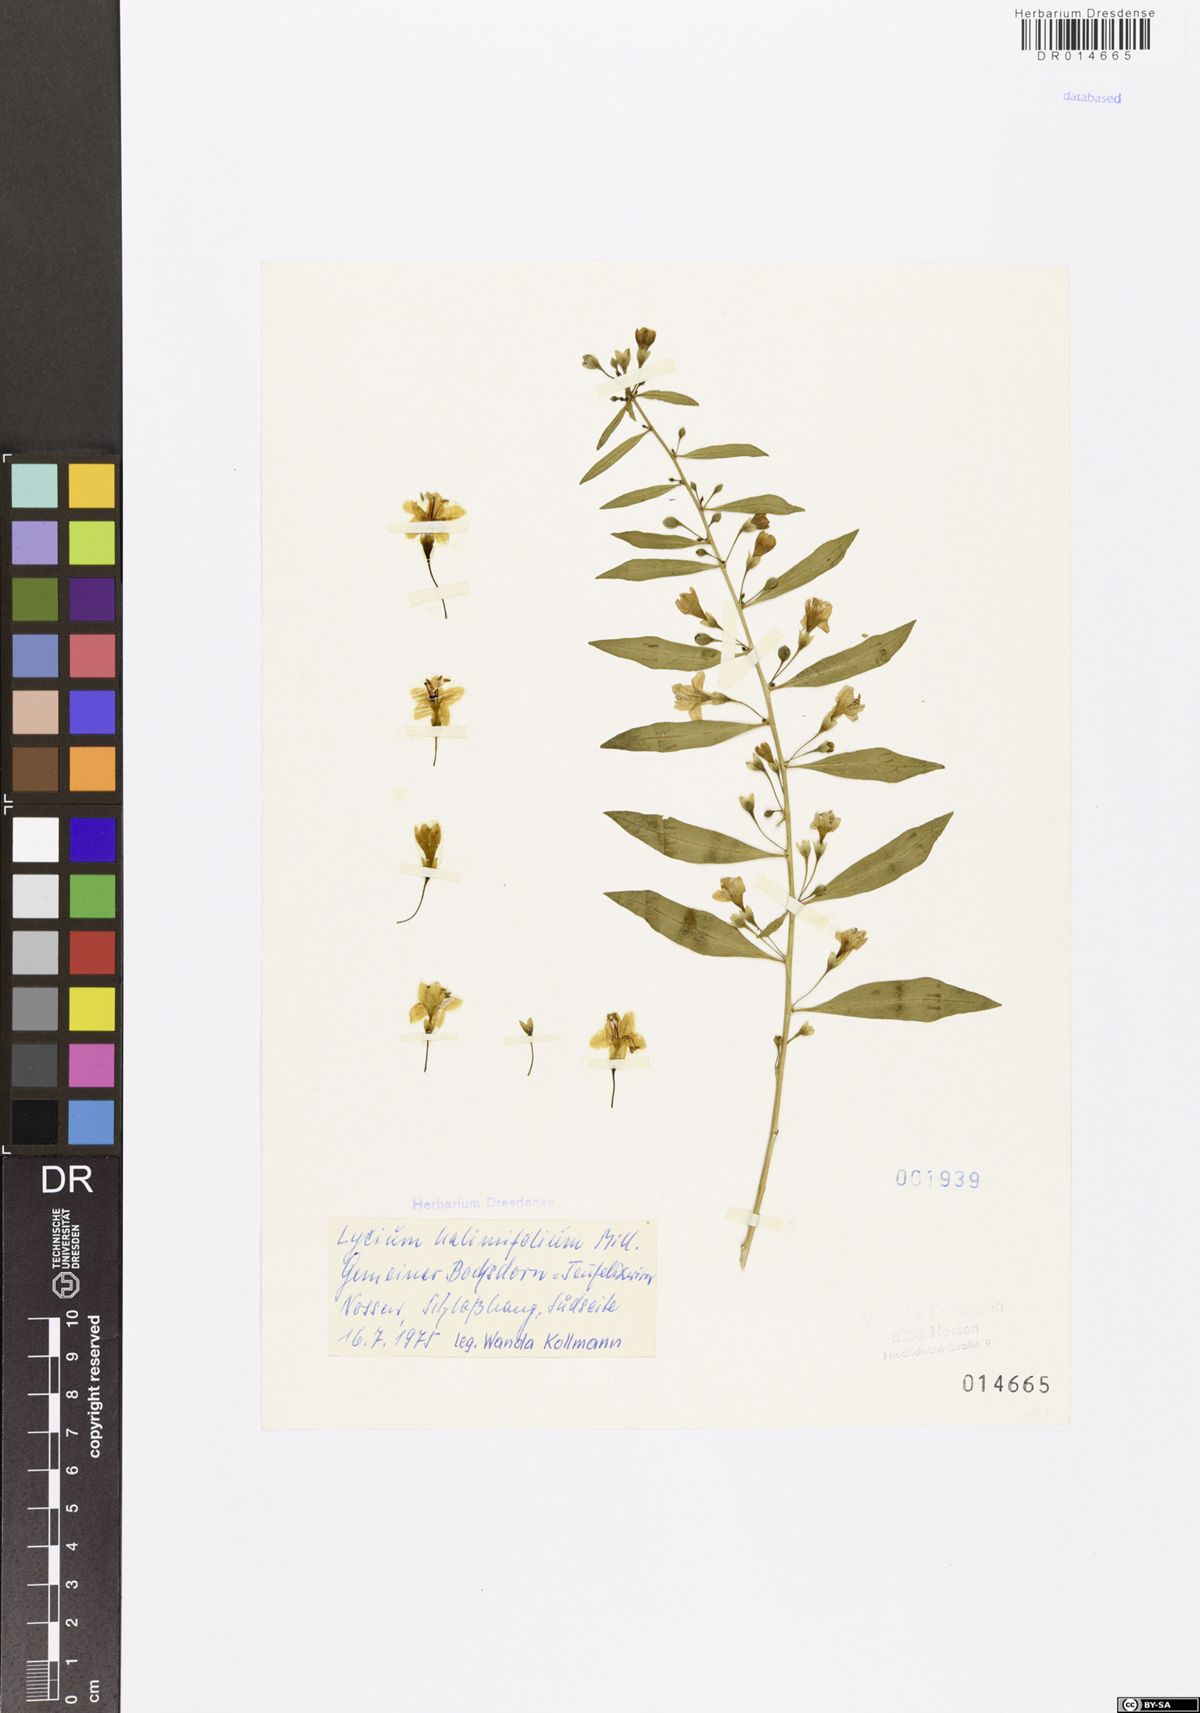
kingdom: Plantae
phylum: Tracheophyta
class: Magnoliopsida
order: Solanales
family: Solanaceae
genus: Lycium
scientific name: Lycium barbarum
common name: Duke of argyll's teaplant
